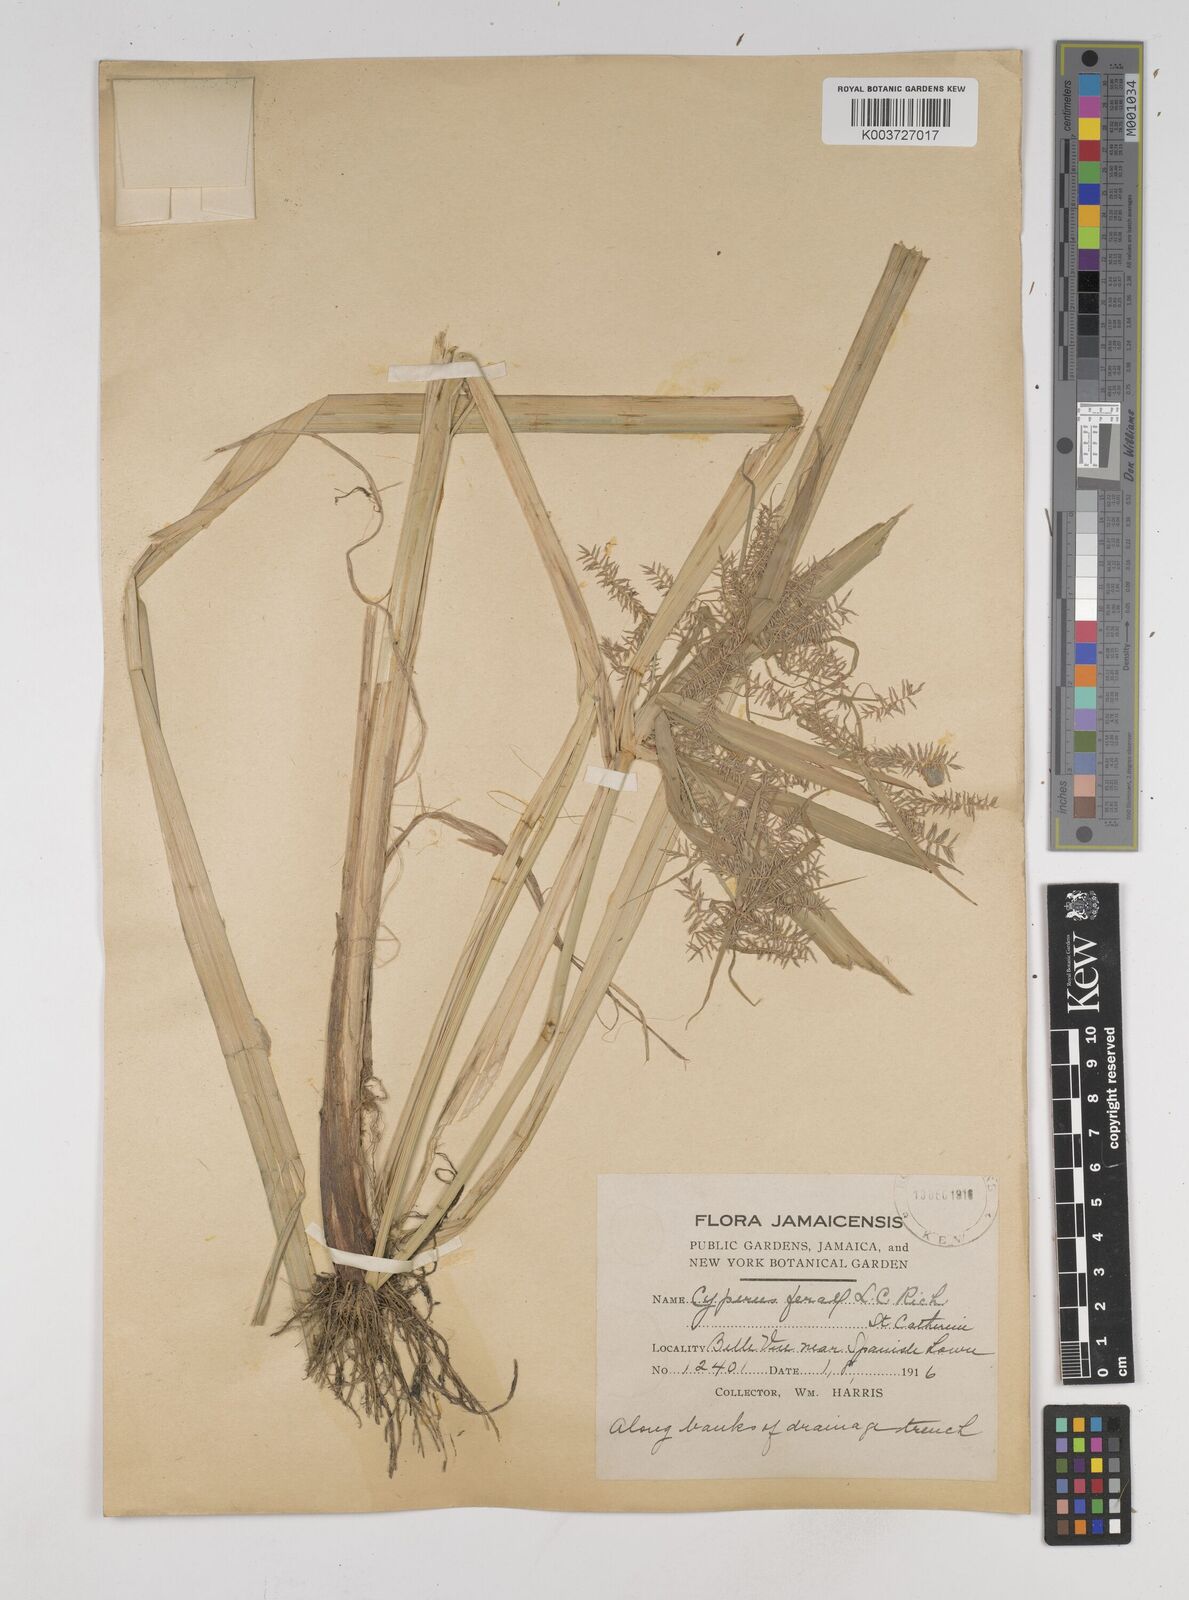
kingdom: Plantae
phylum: Tracheophyta
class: Liliopsida
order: Poales
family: Cyperaceae
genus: Cyperus
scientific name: Cyperus odoratus
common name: Fragrant flatsedge
